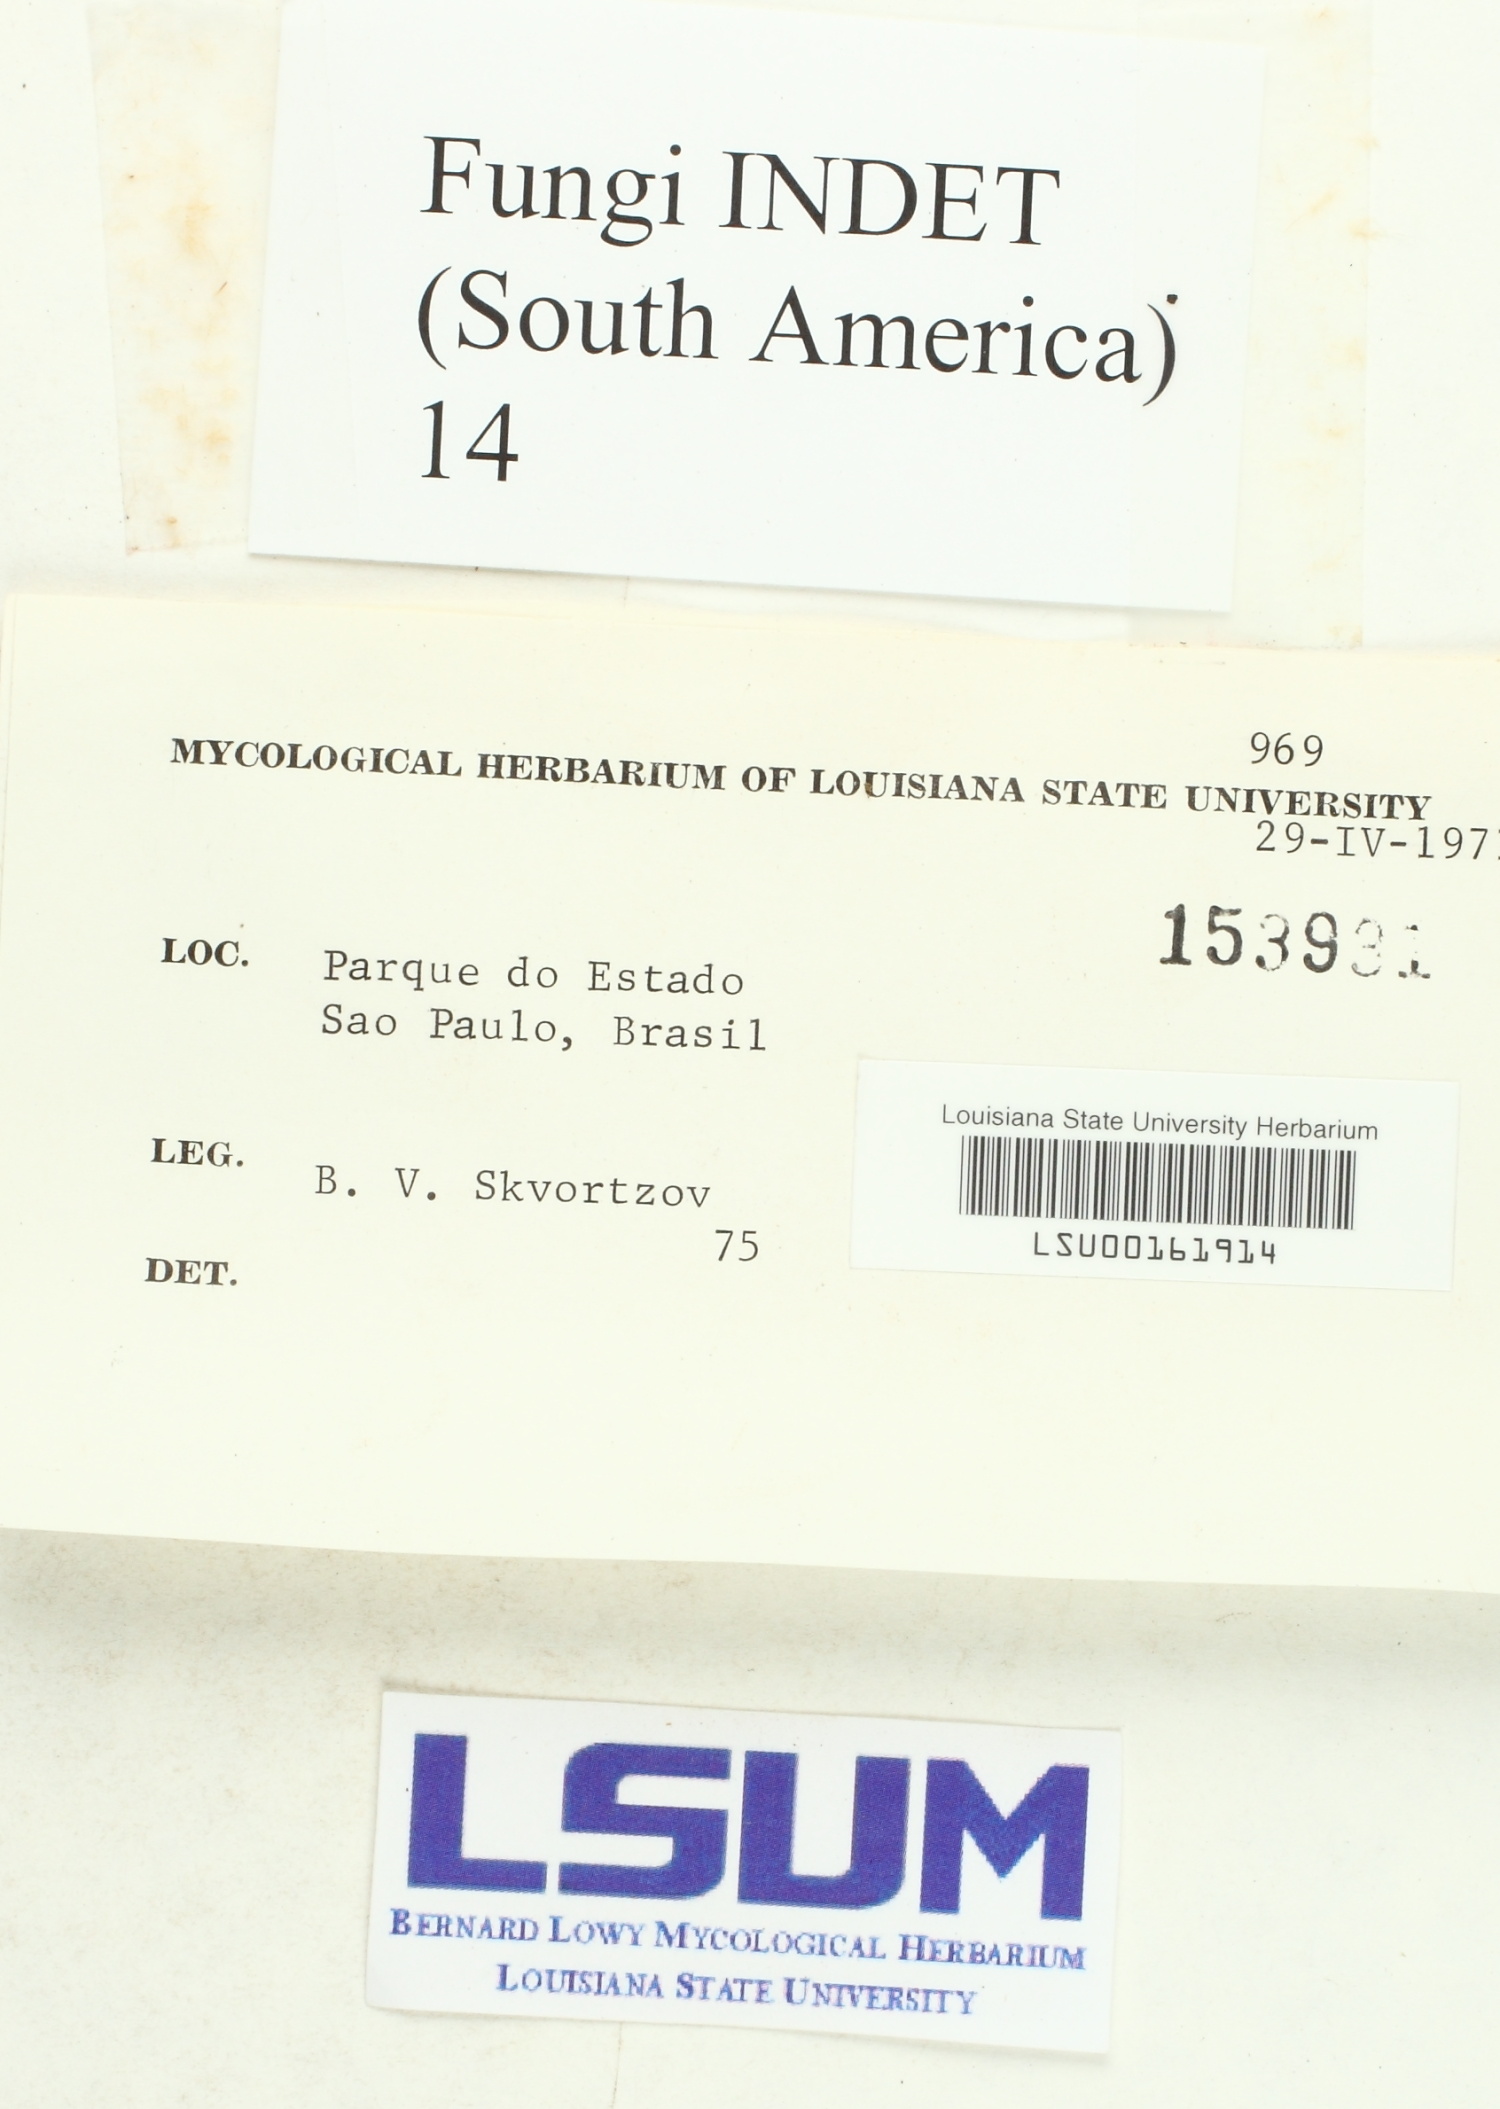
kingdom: Fungi
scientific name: Fungi
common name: Fungi
